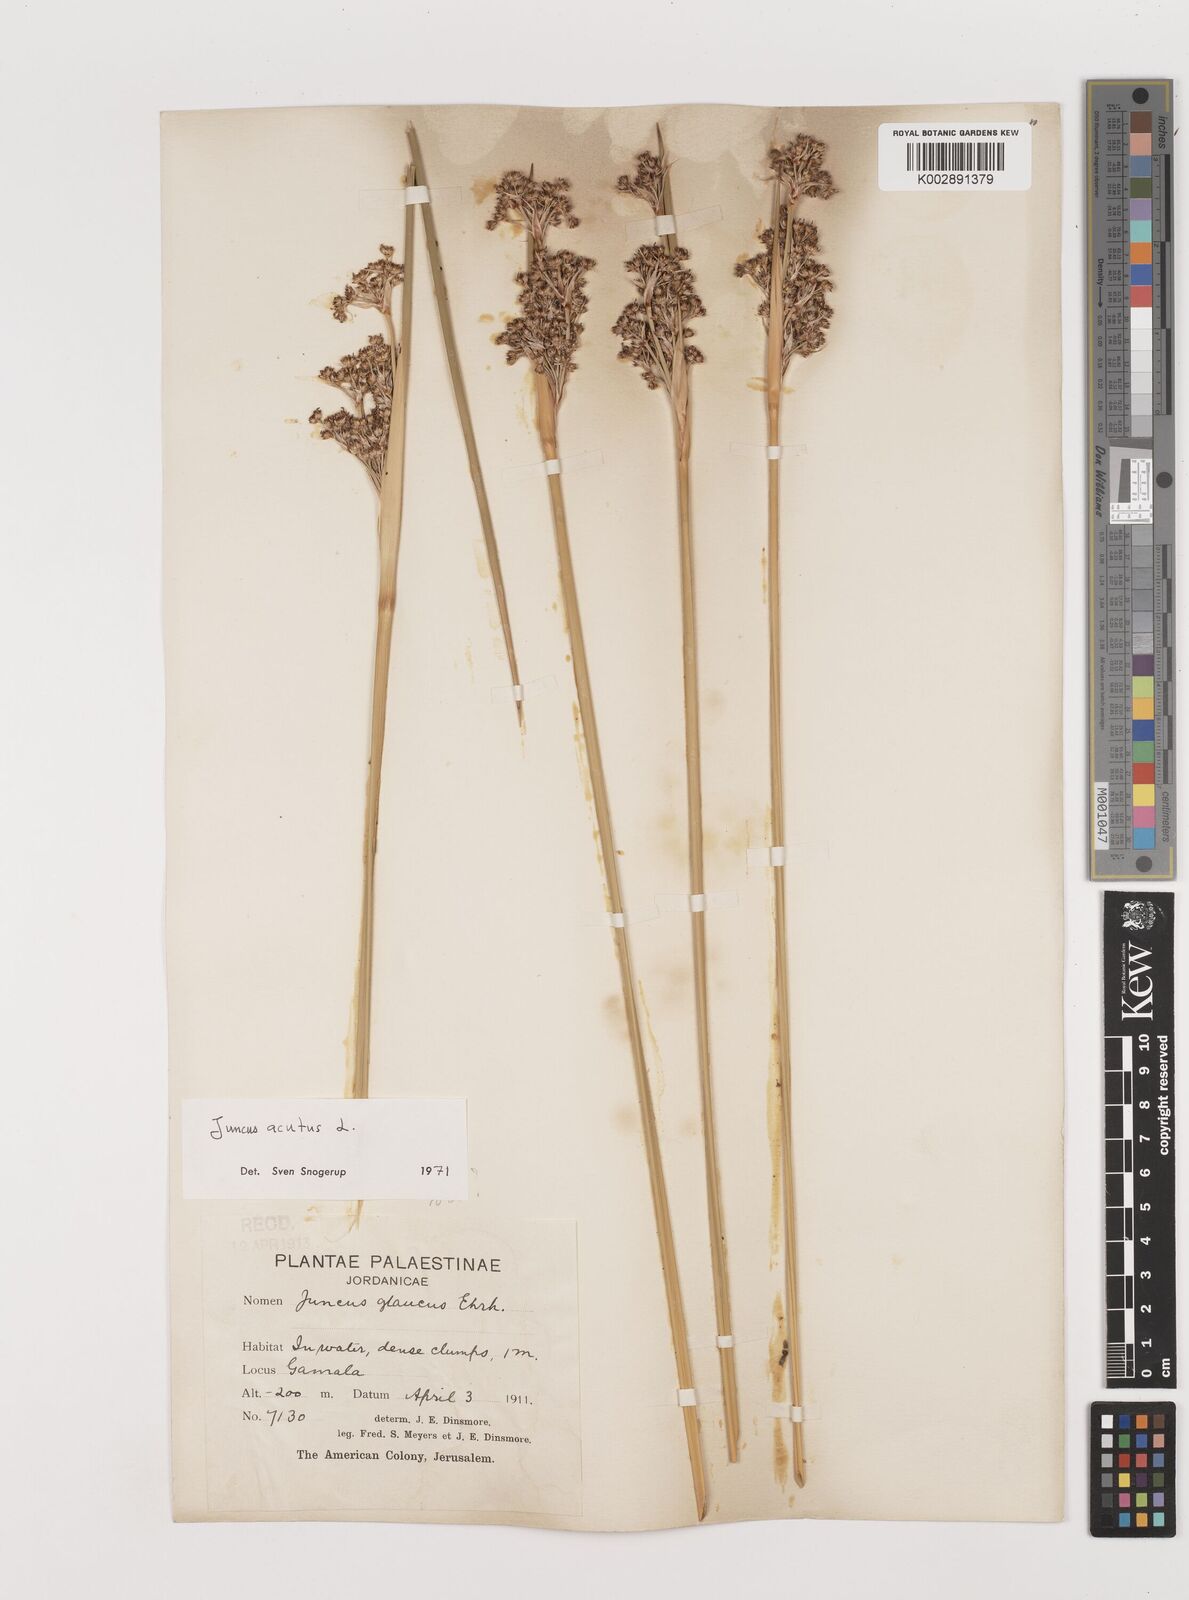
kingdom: Plantae
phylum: Tracheophyta
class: Liliopsida
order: Poales
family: Juncaceae
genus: Juncus
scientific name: Juncus acutus
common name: Sharp rush
